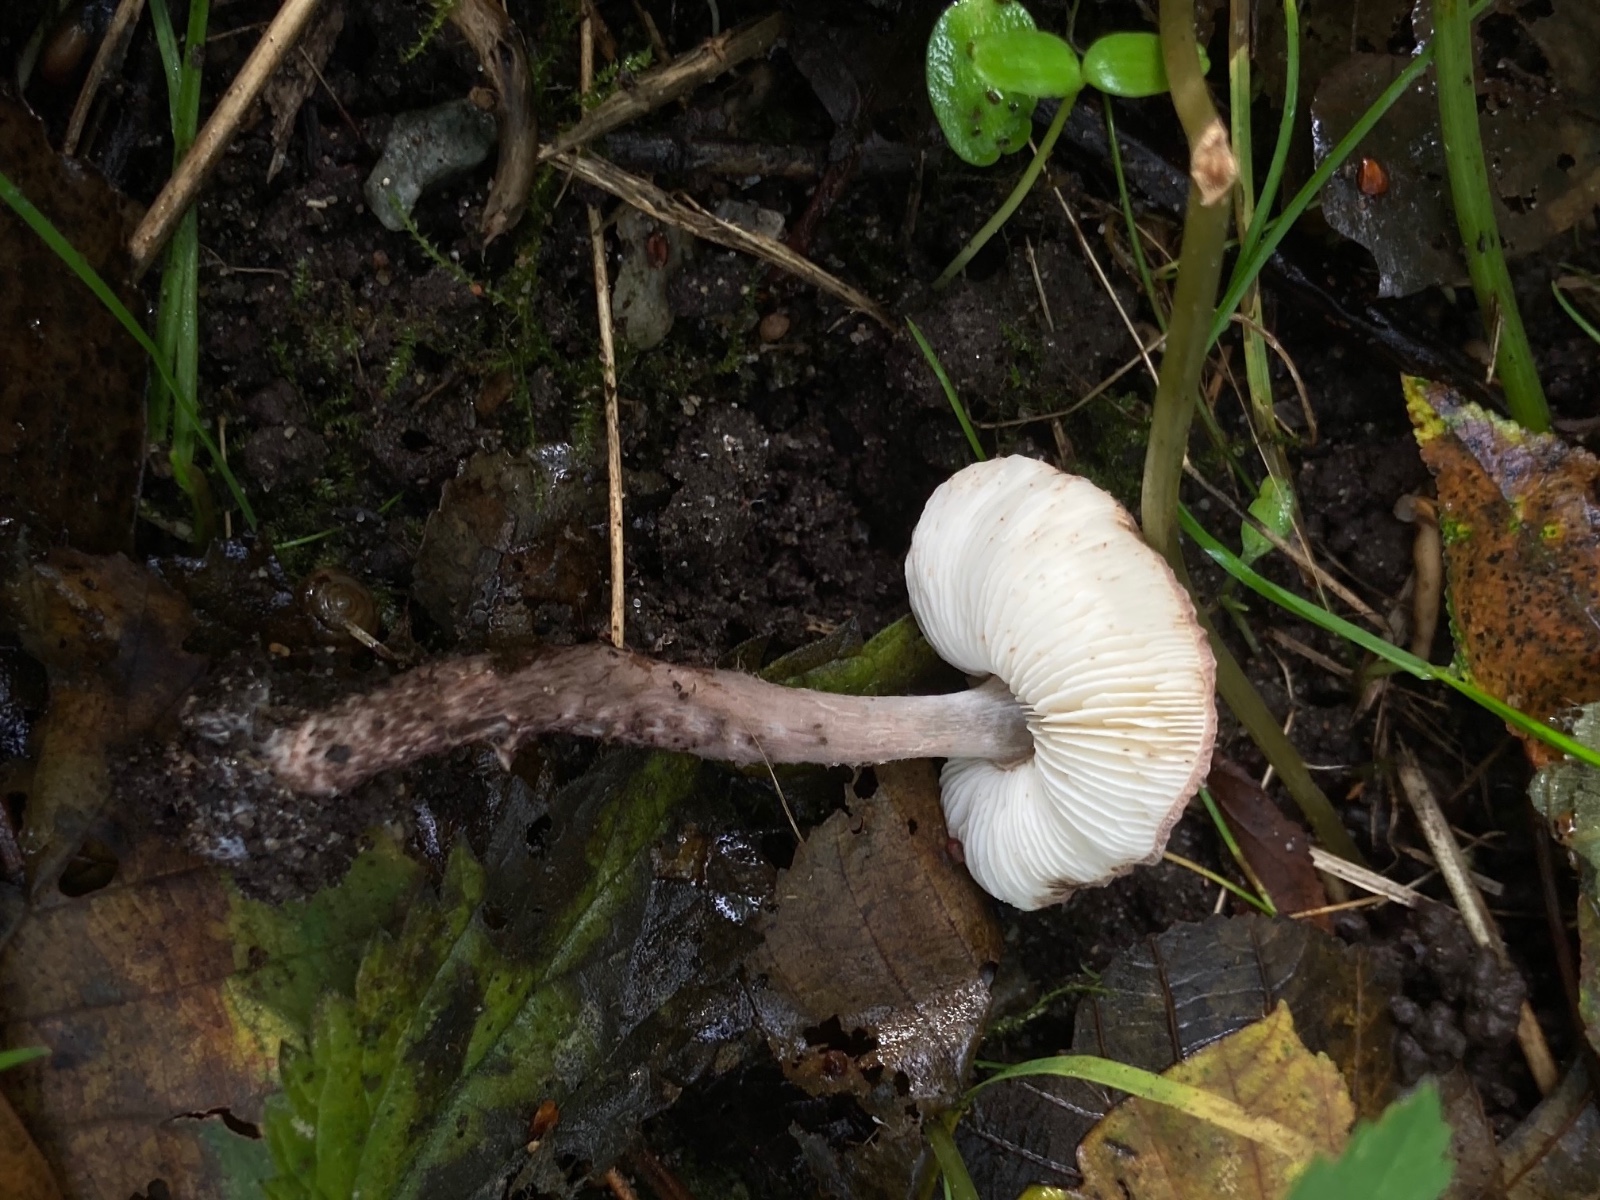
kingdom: Fungi
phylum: Basidiomycota
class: Agaricomycetes
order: Agaricales
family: Agaricaceae
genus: Lepiota
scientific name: Lepiota fuscovinacea
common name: vinrød parasolhat
